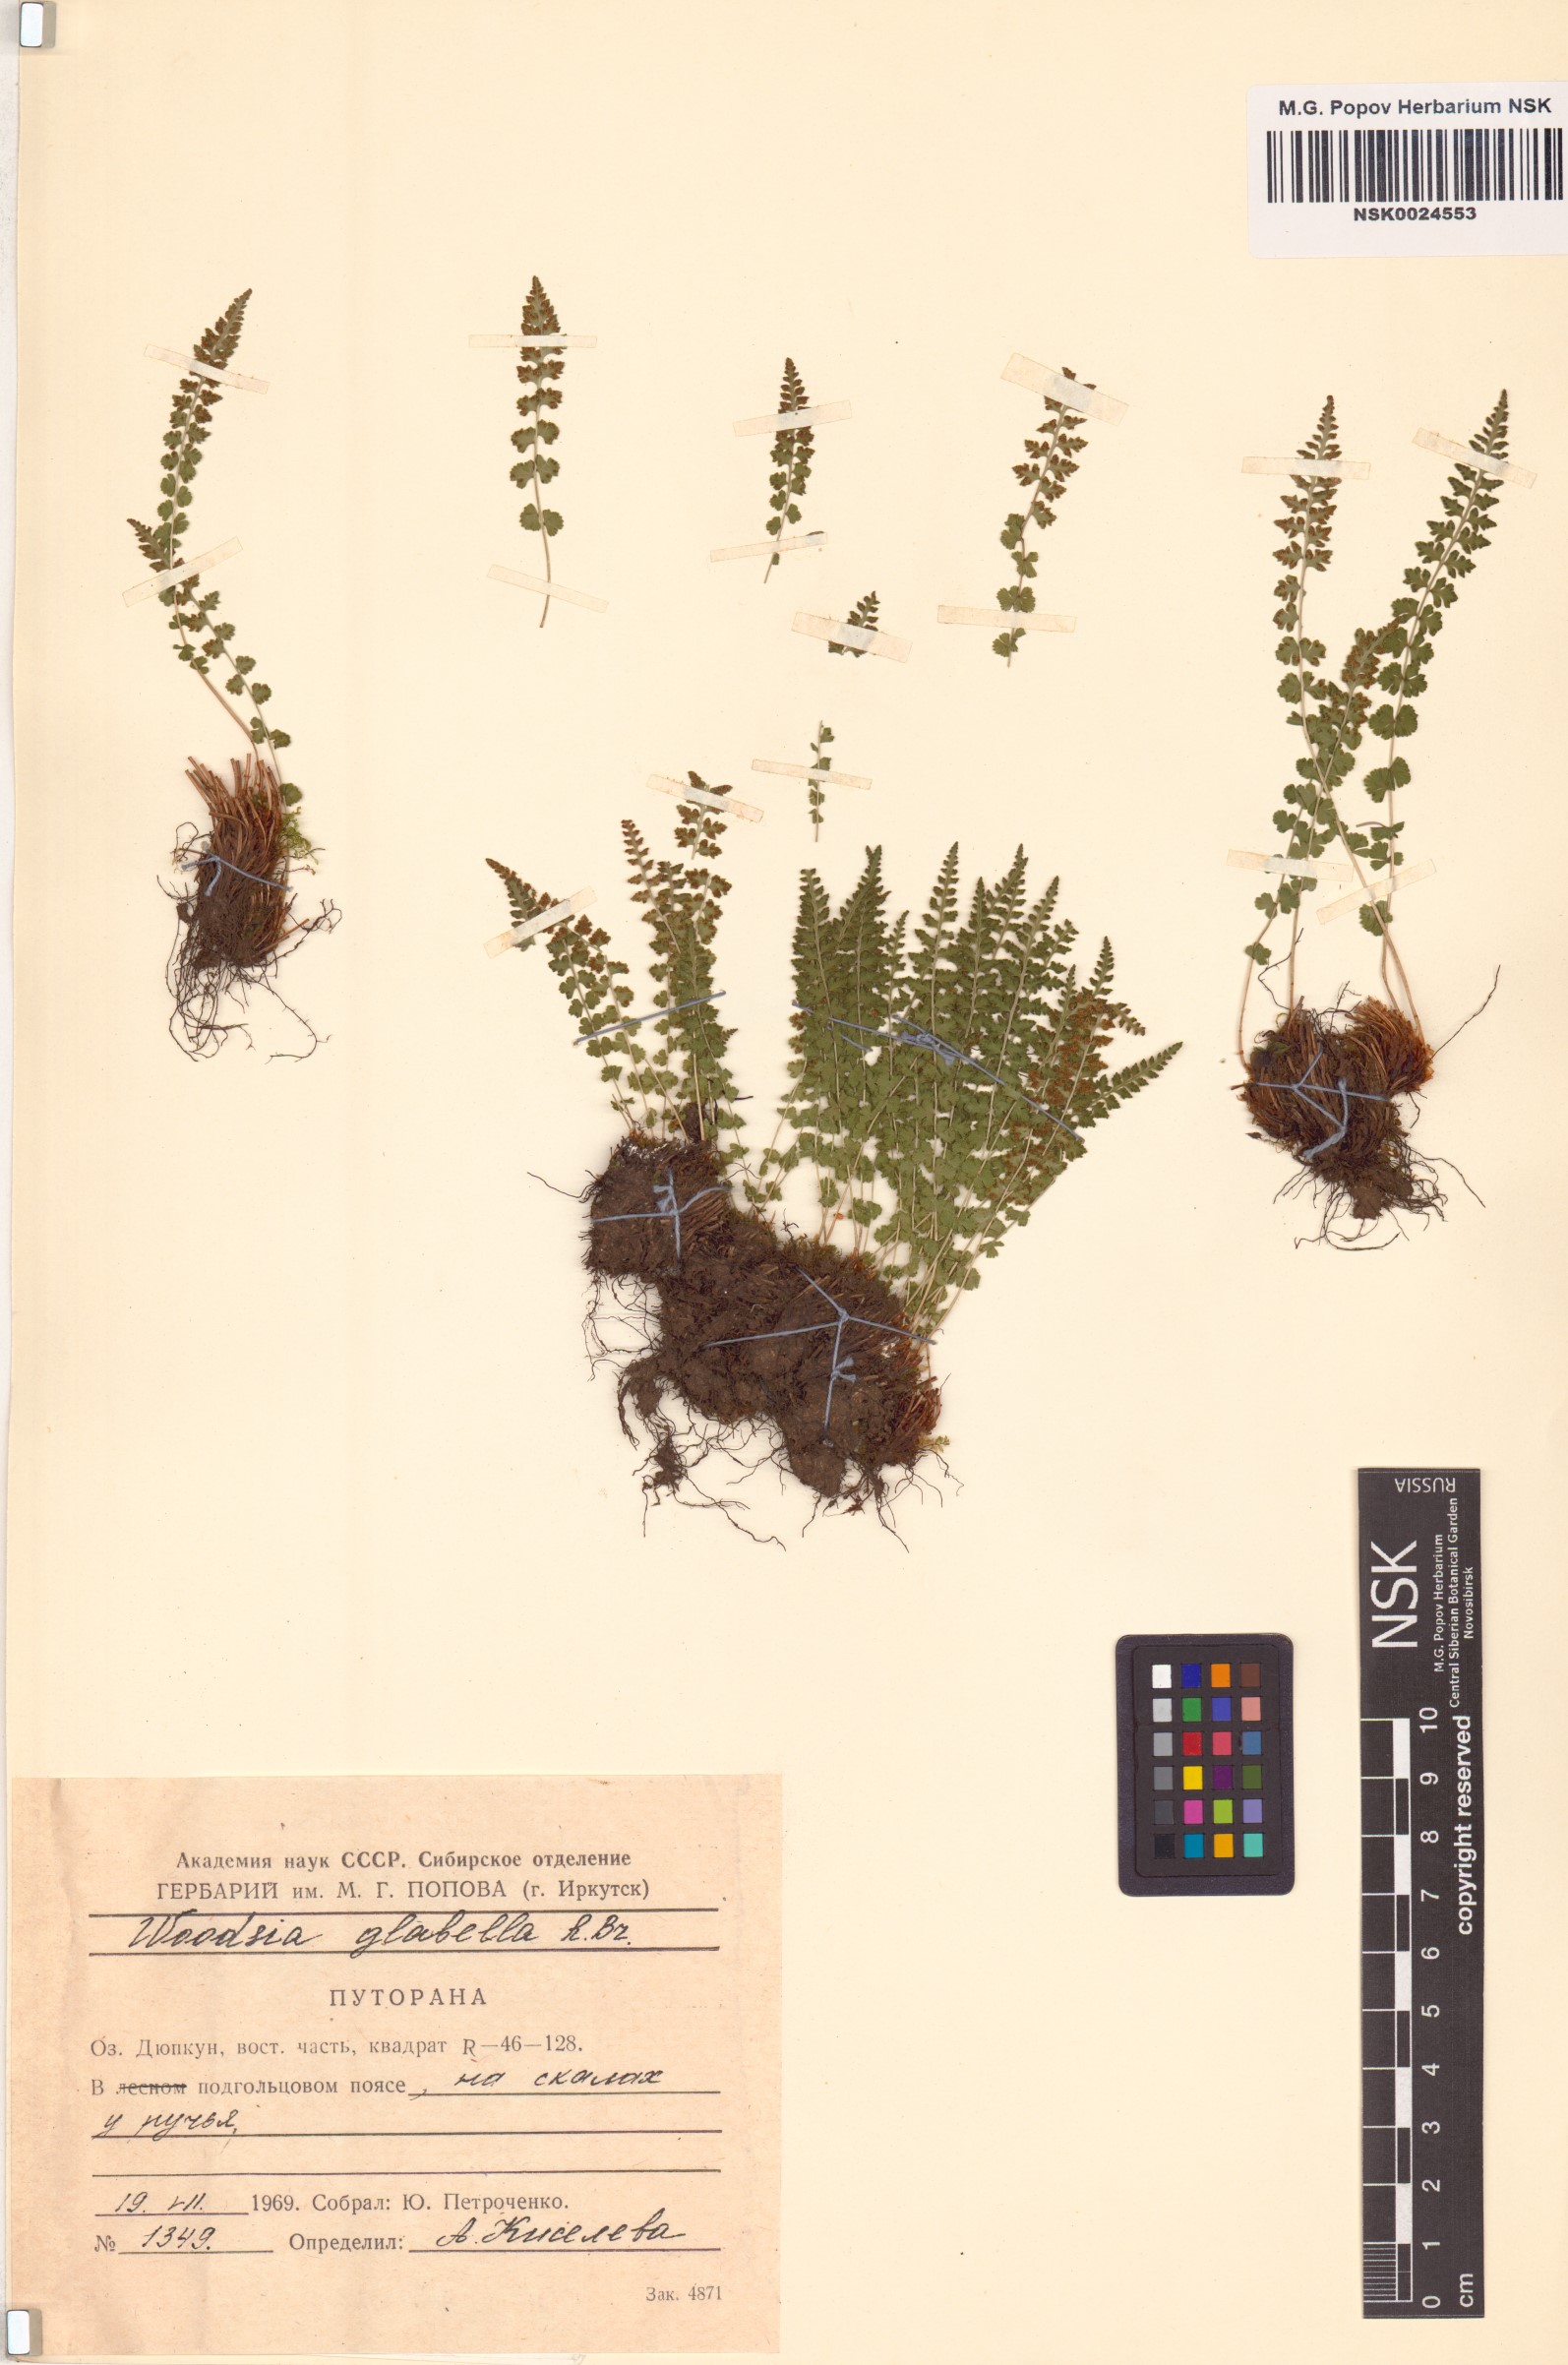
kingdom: Plantae
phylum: Tracheophyta
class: Polypodiopsida
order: Polypodiales
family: Woodsiaceae
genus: Woodsia
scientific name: Woodsia glabella
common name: Smooth woodsia
